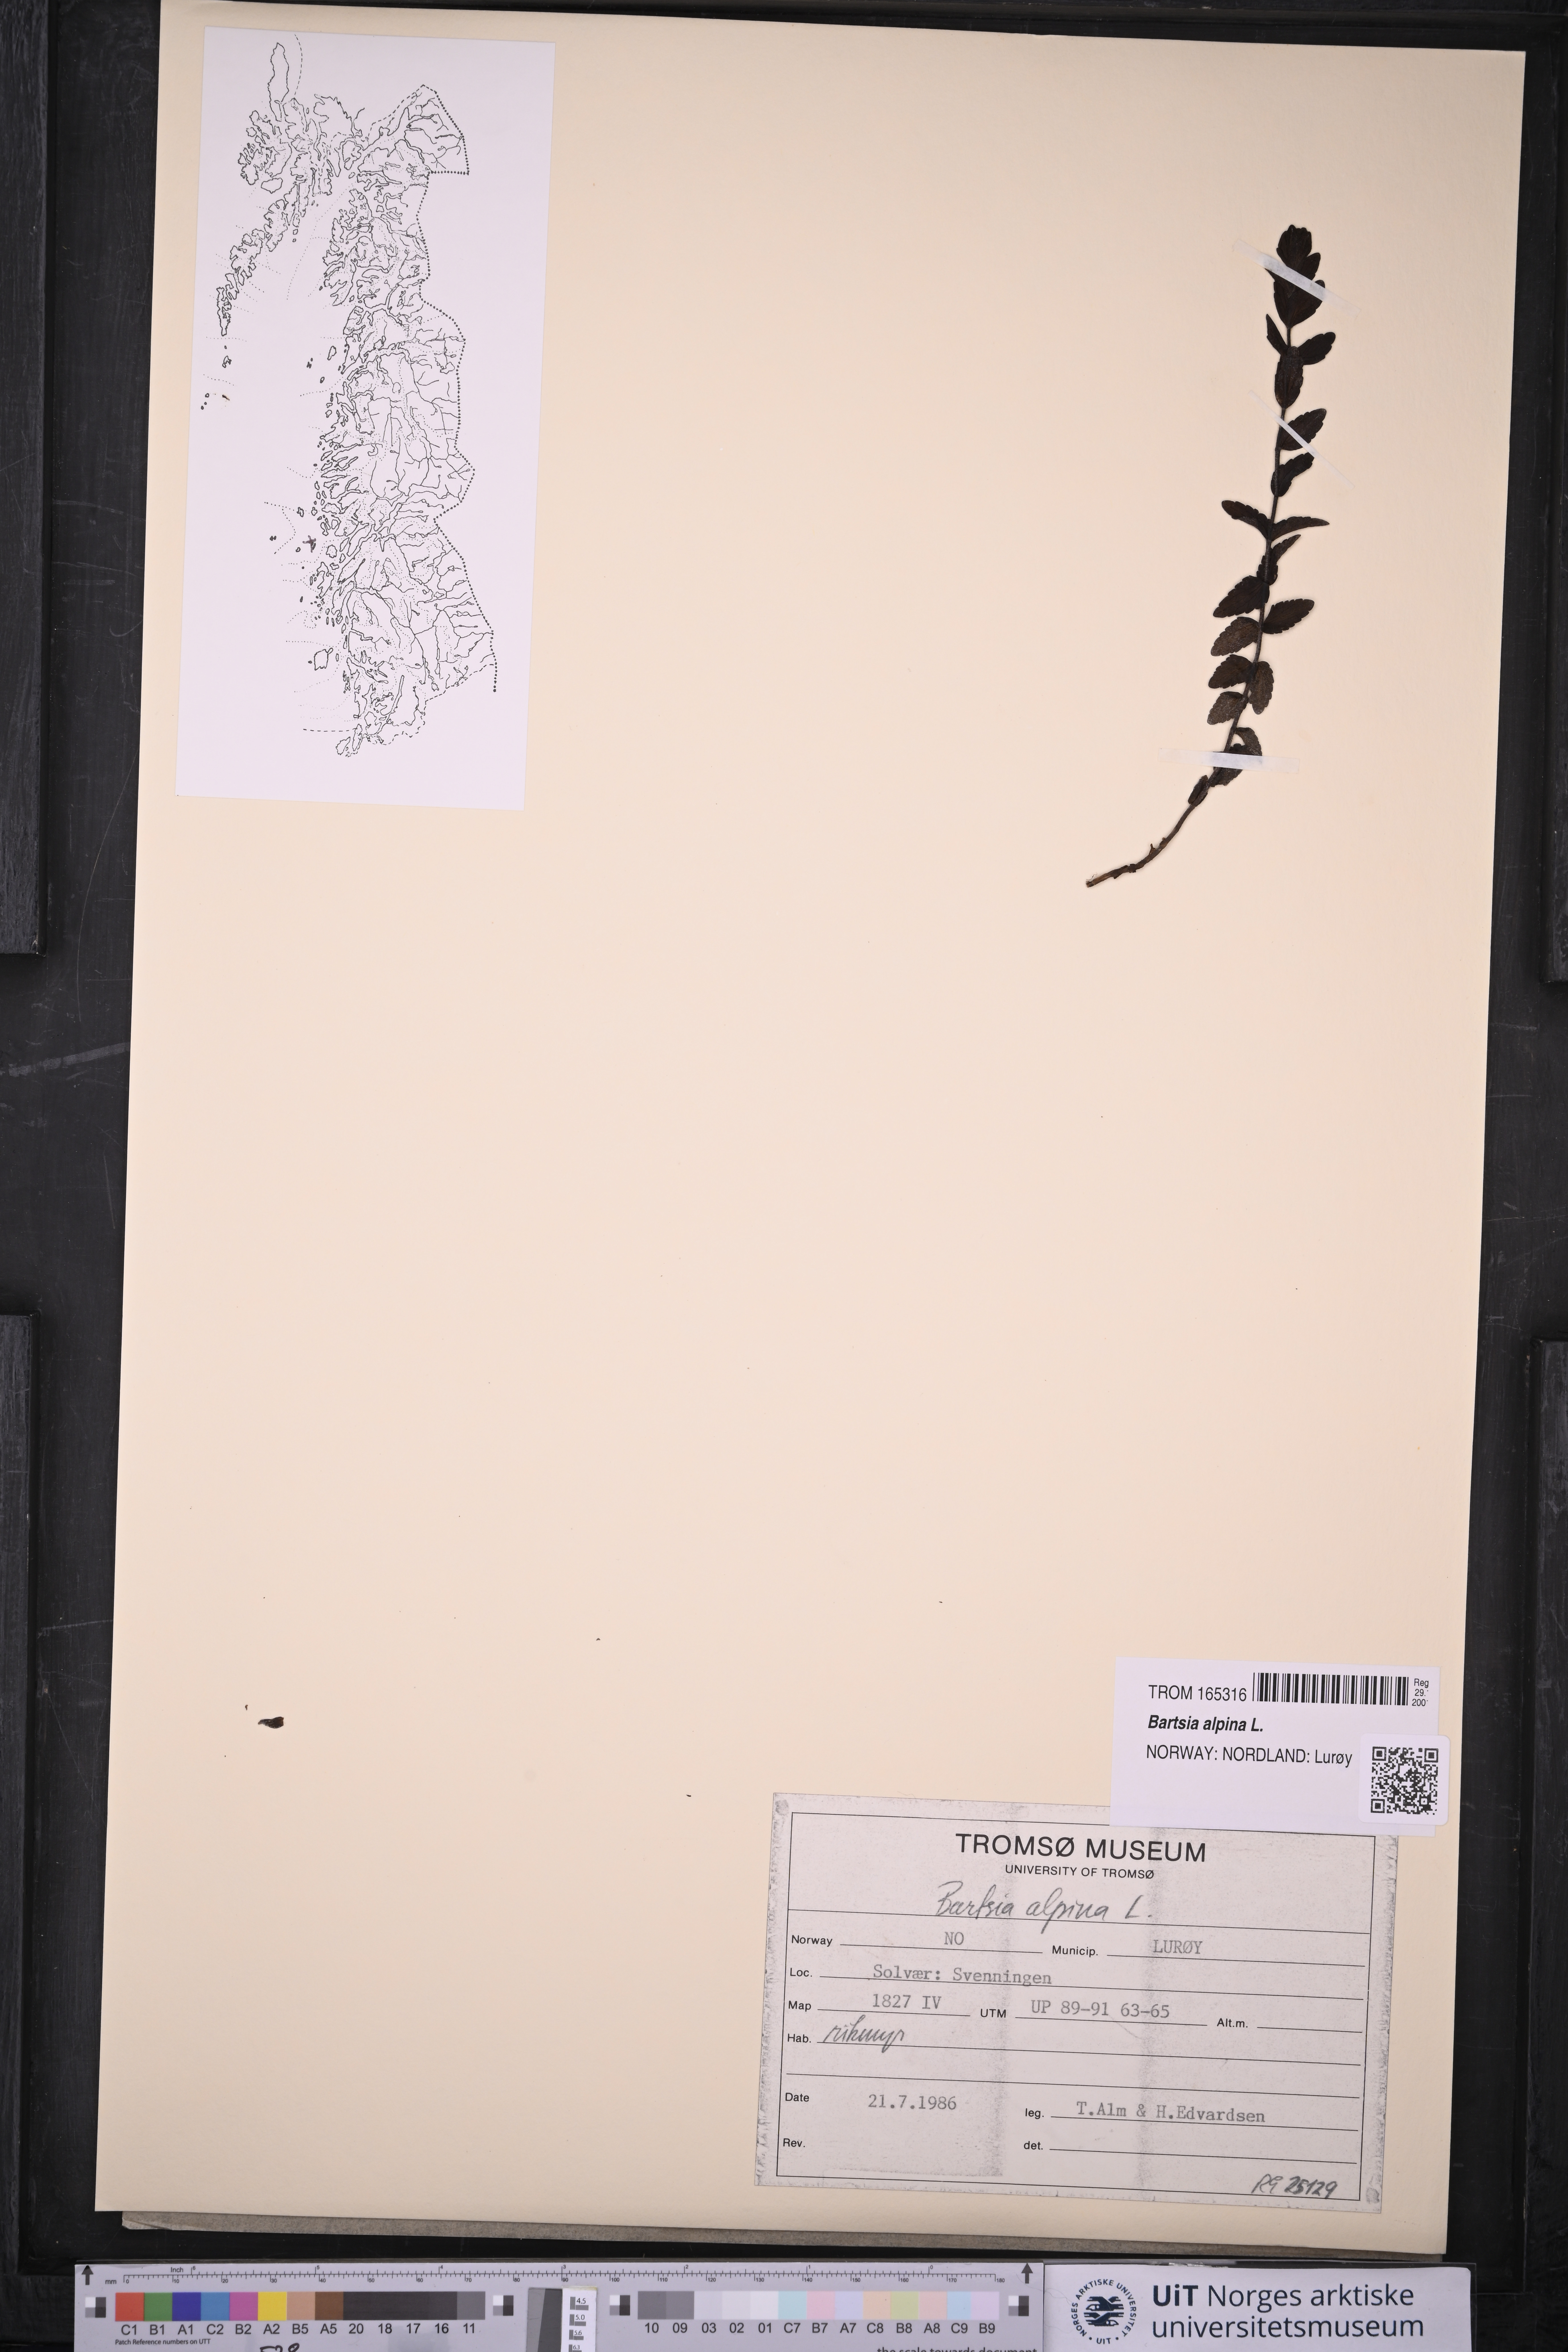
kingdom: Plantae
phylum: Tracheophyta
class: Magnoliopsida
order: Lamiales
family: Orobanchaceae
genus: Bartsia
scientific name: Bartsia alpina
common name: Alpine bartsia
